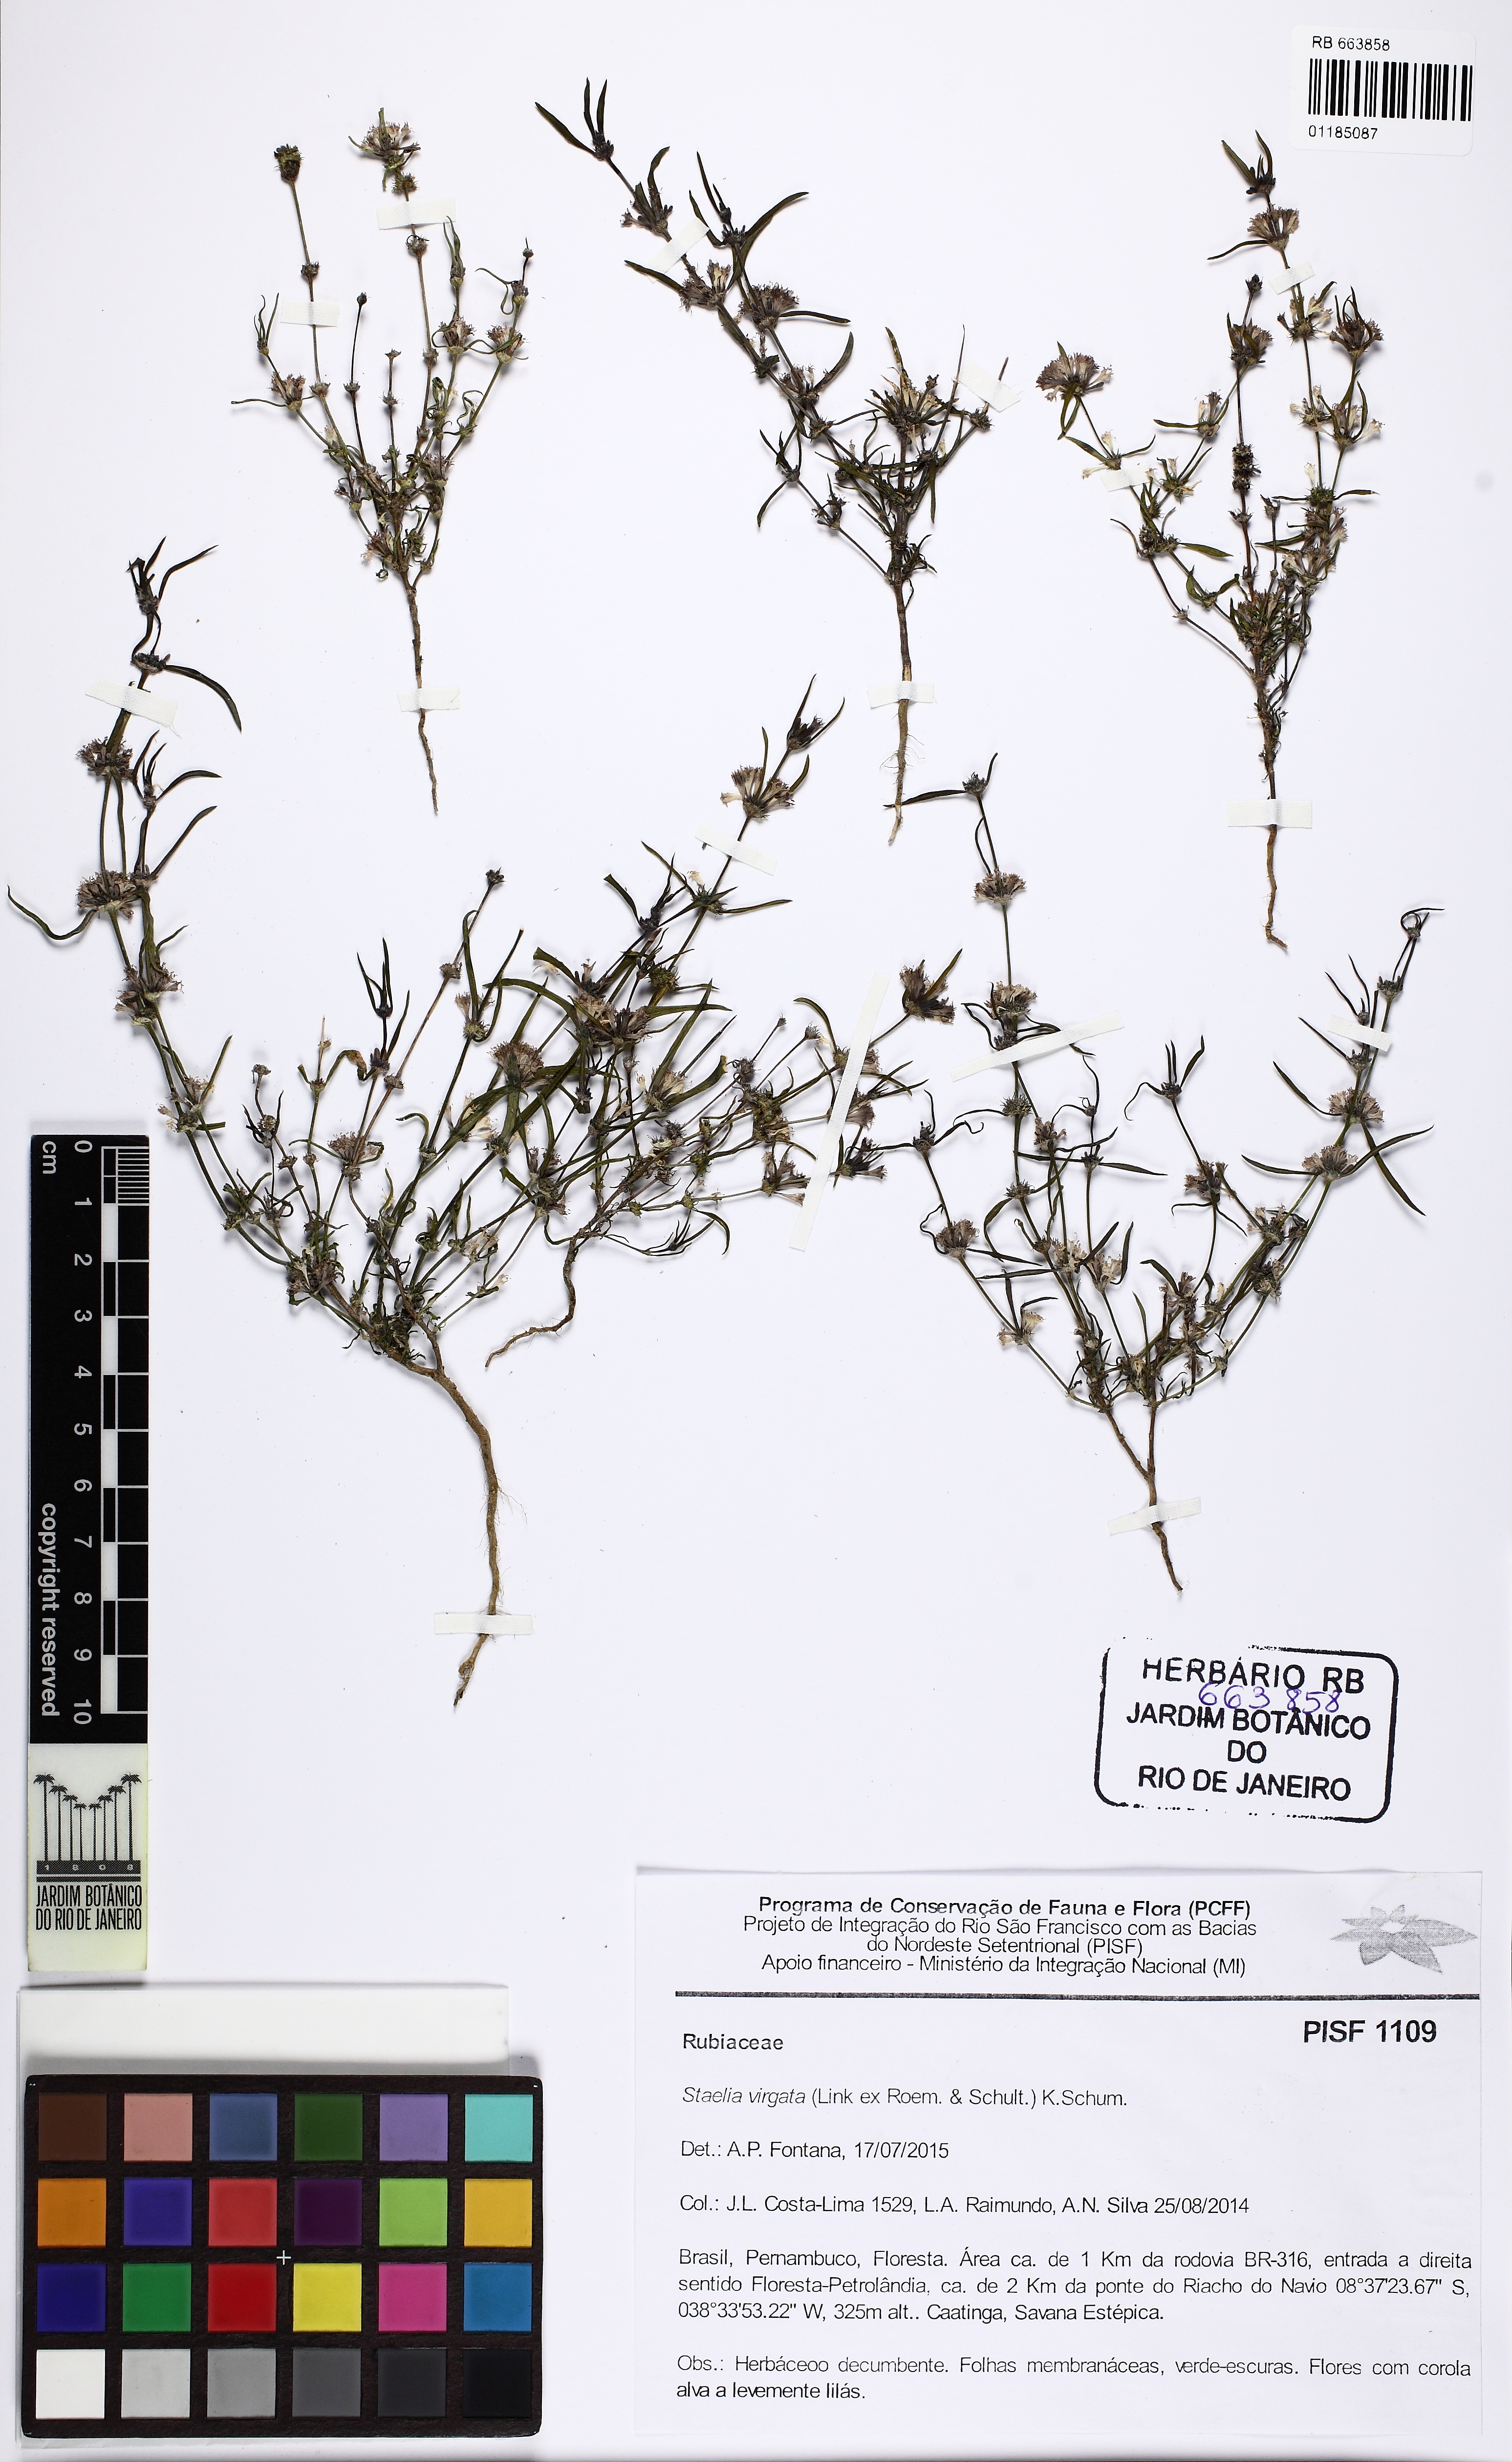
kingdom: Plantae
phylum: Tracheophyta
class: Magnoliopsida
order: Gentianales
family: Rubiaceae
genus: Staelia
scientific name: Staelia virgata
